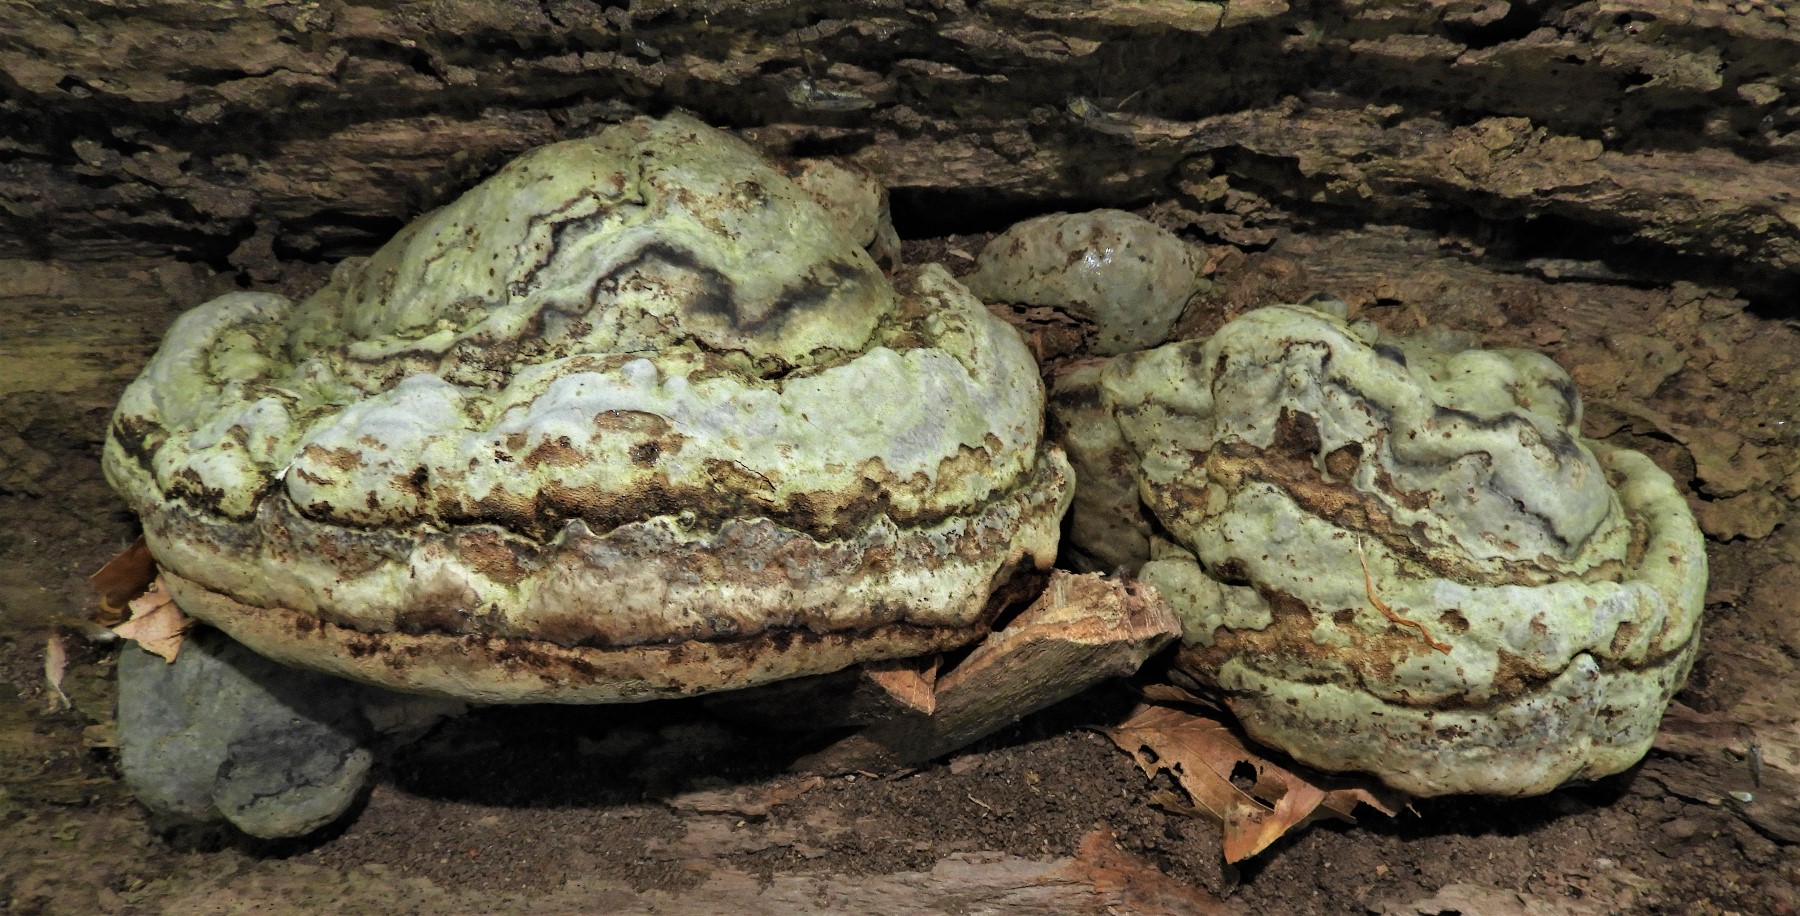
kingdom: Fungi
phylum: Basidiomycota
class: Agaricomycetes
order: Polyporales
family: Polyporaceae
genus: Fomes
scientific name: Fomes fomentarius
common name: tøndersvamp
